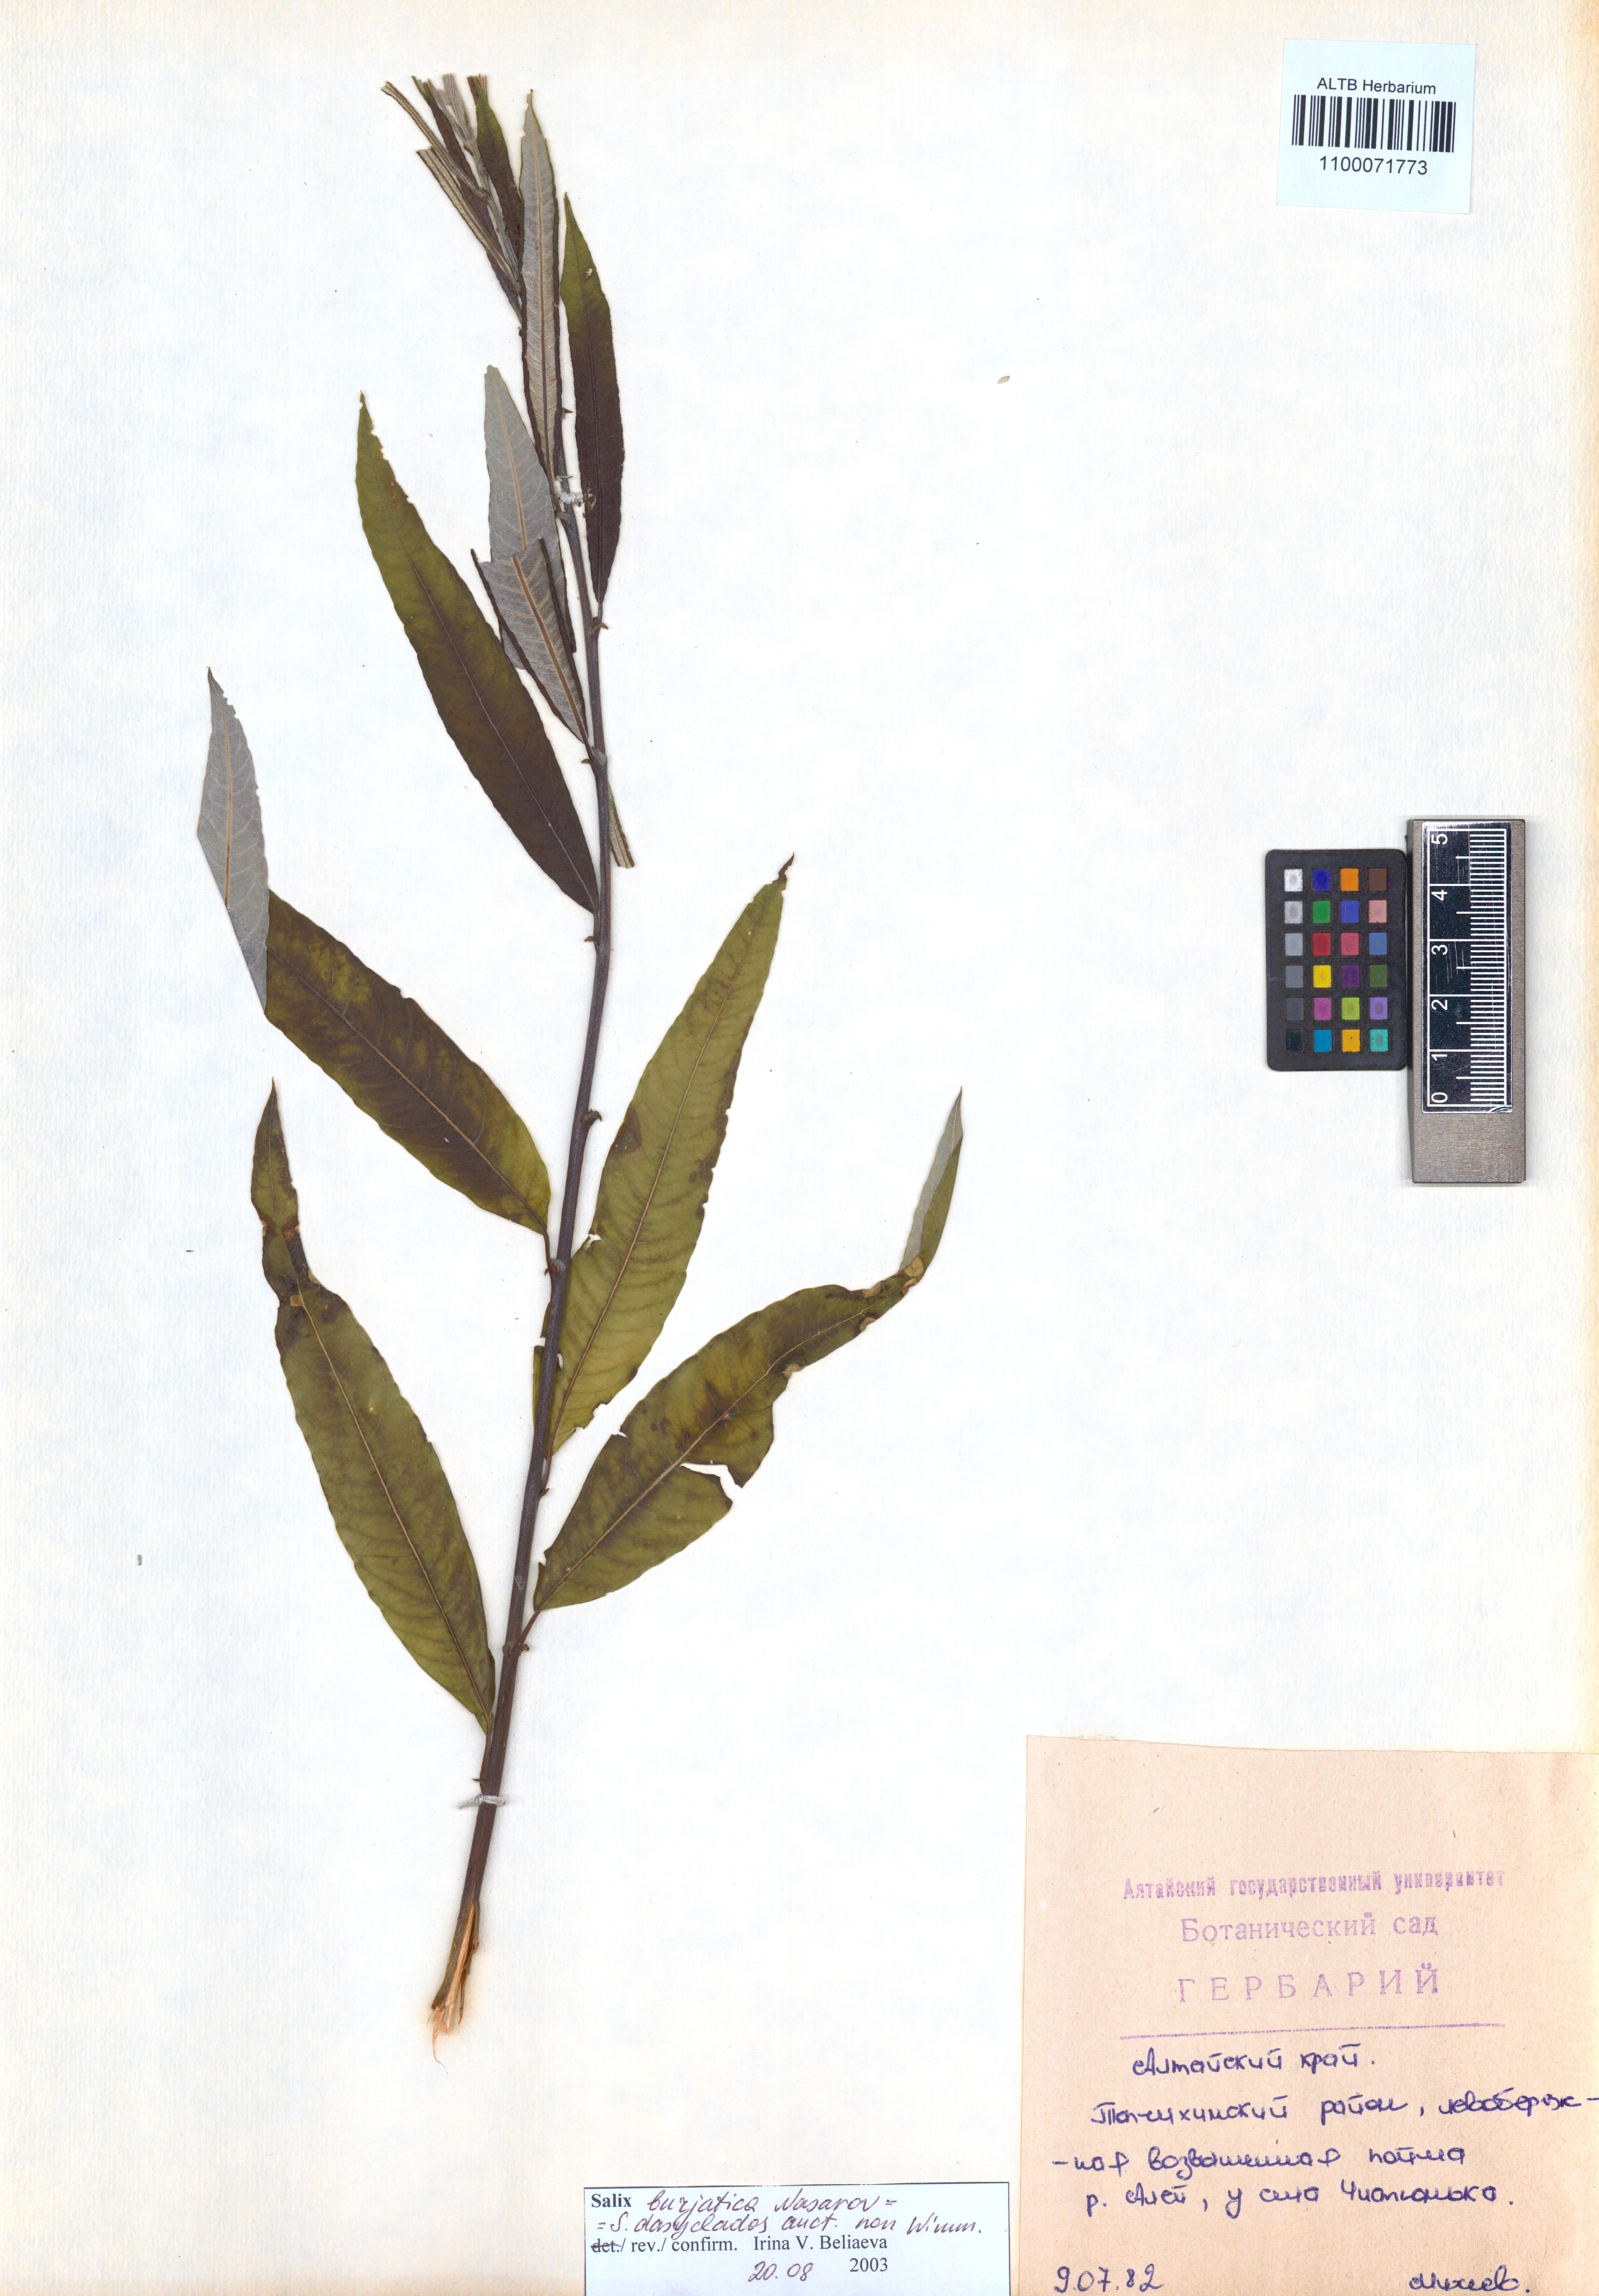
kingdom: Plantae
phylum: Tracheophyta
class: Magnoliopsida
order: Malpighiales
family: Salicaceae
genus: Salix
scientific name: Salix gmelinii
